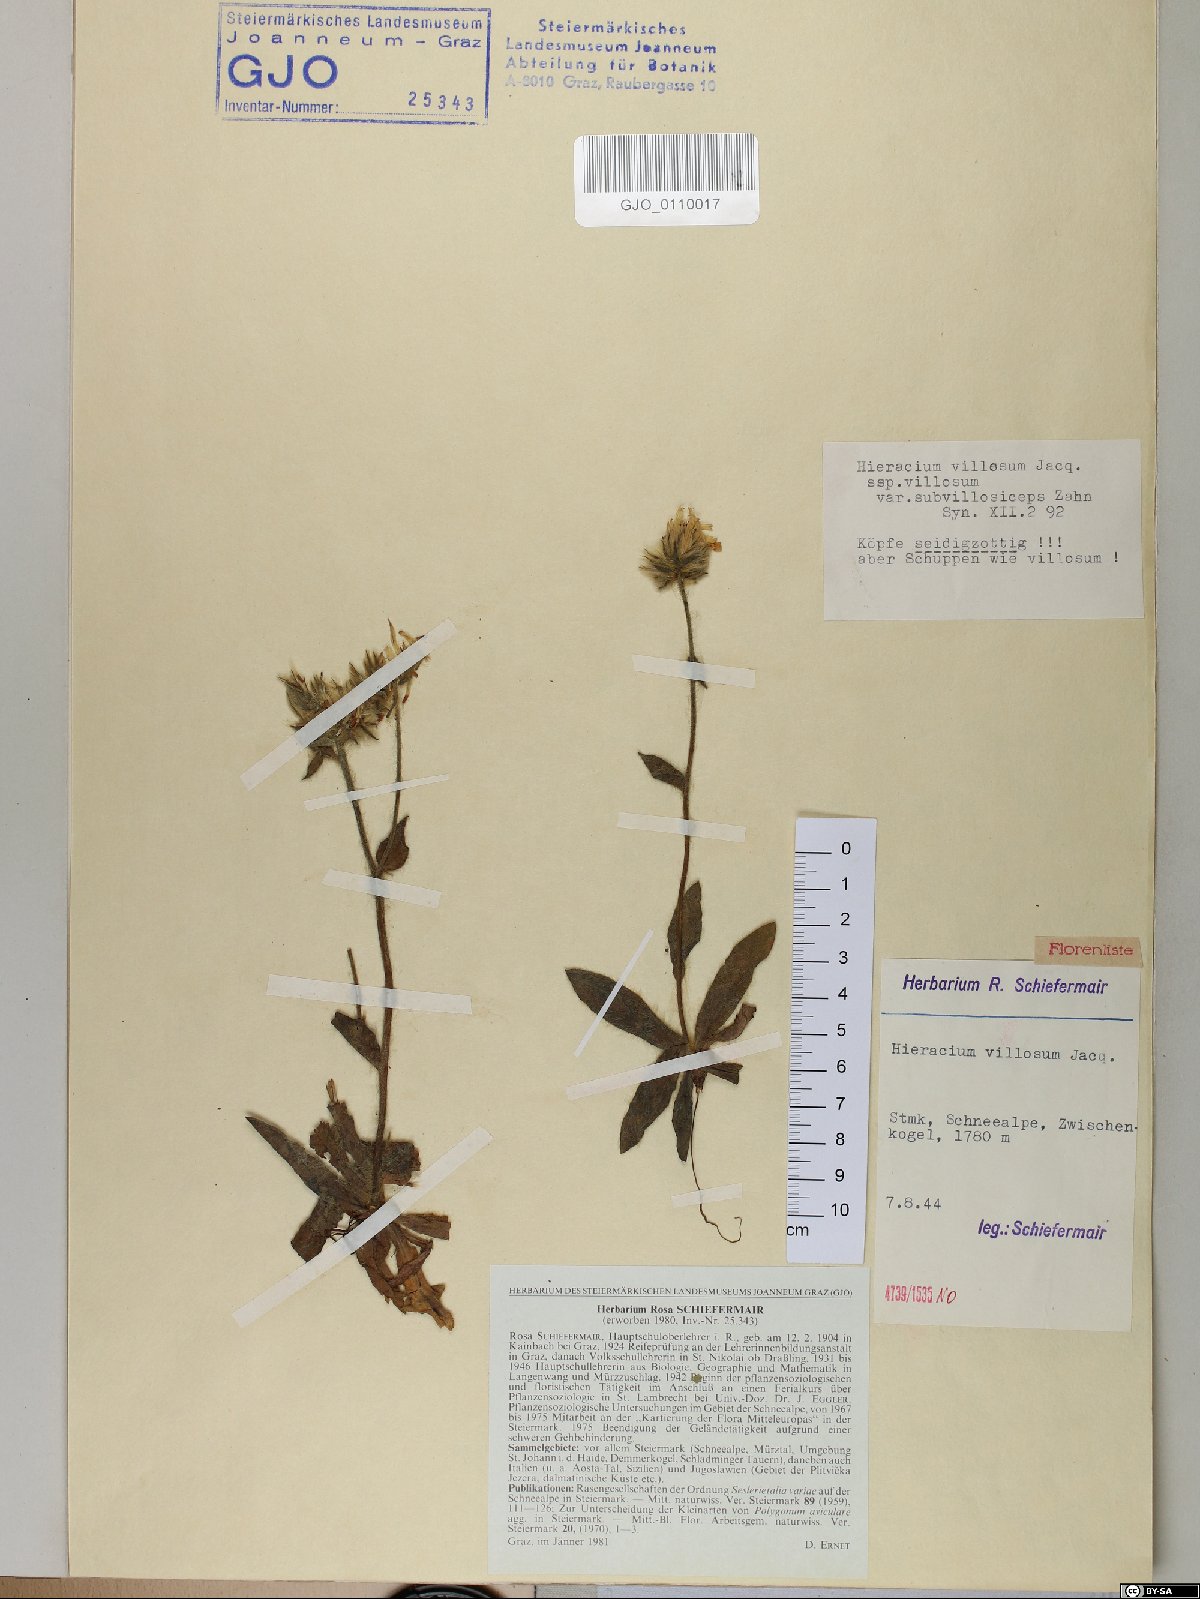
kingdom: Plantae
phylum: Tracheophyta
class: Magnoliopsida
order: Asterales
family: Asteraceae
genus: Hieracium
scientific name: Hieracium villosum
